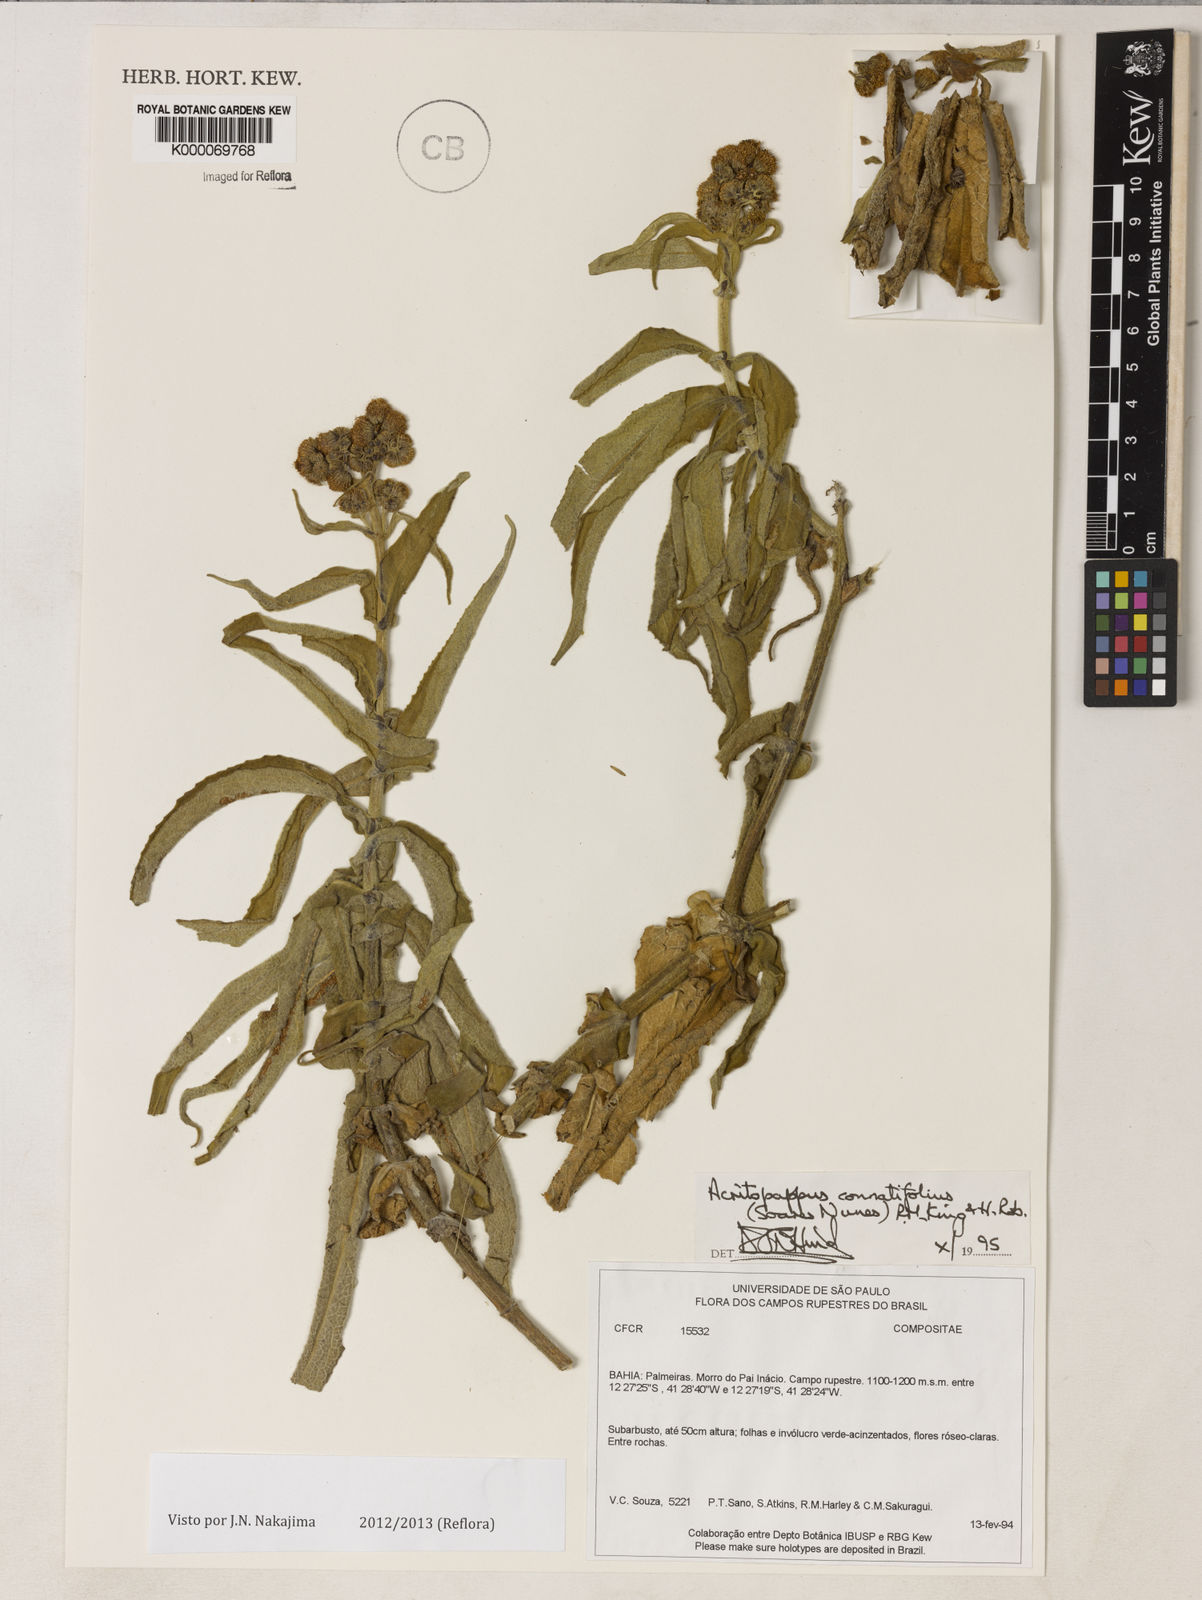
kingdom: Plantae
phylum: Tracheophyta
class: Magnoliopsida
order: Asterales
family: Asteraceae
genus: Acritopappus
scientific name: Acritopappus connatifolius
